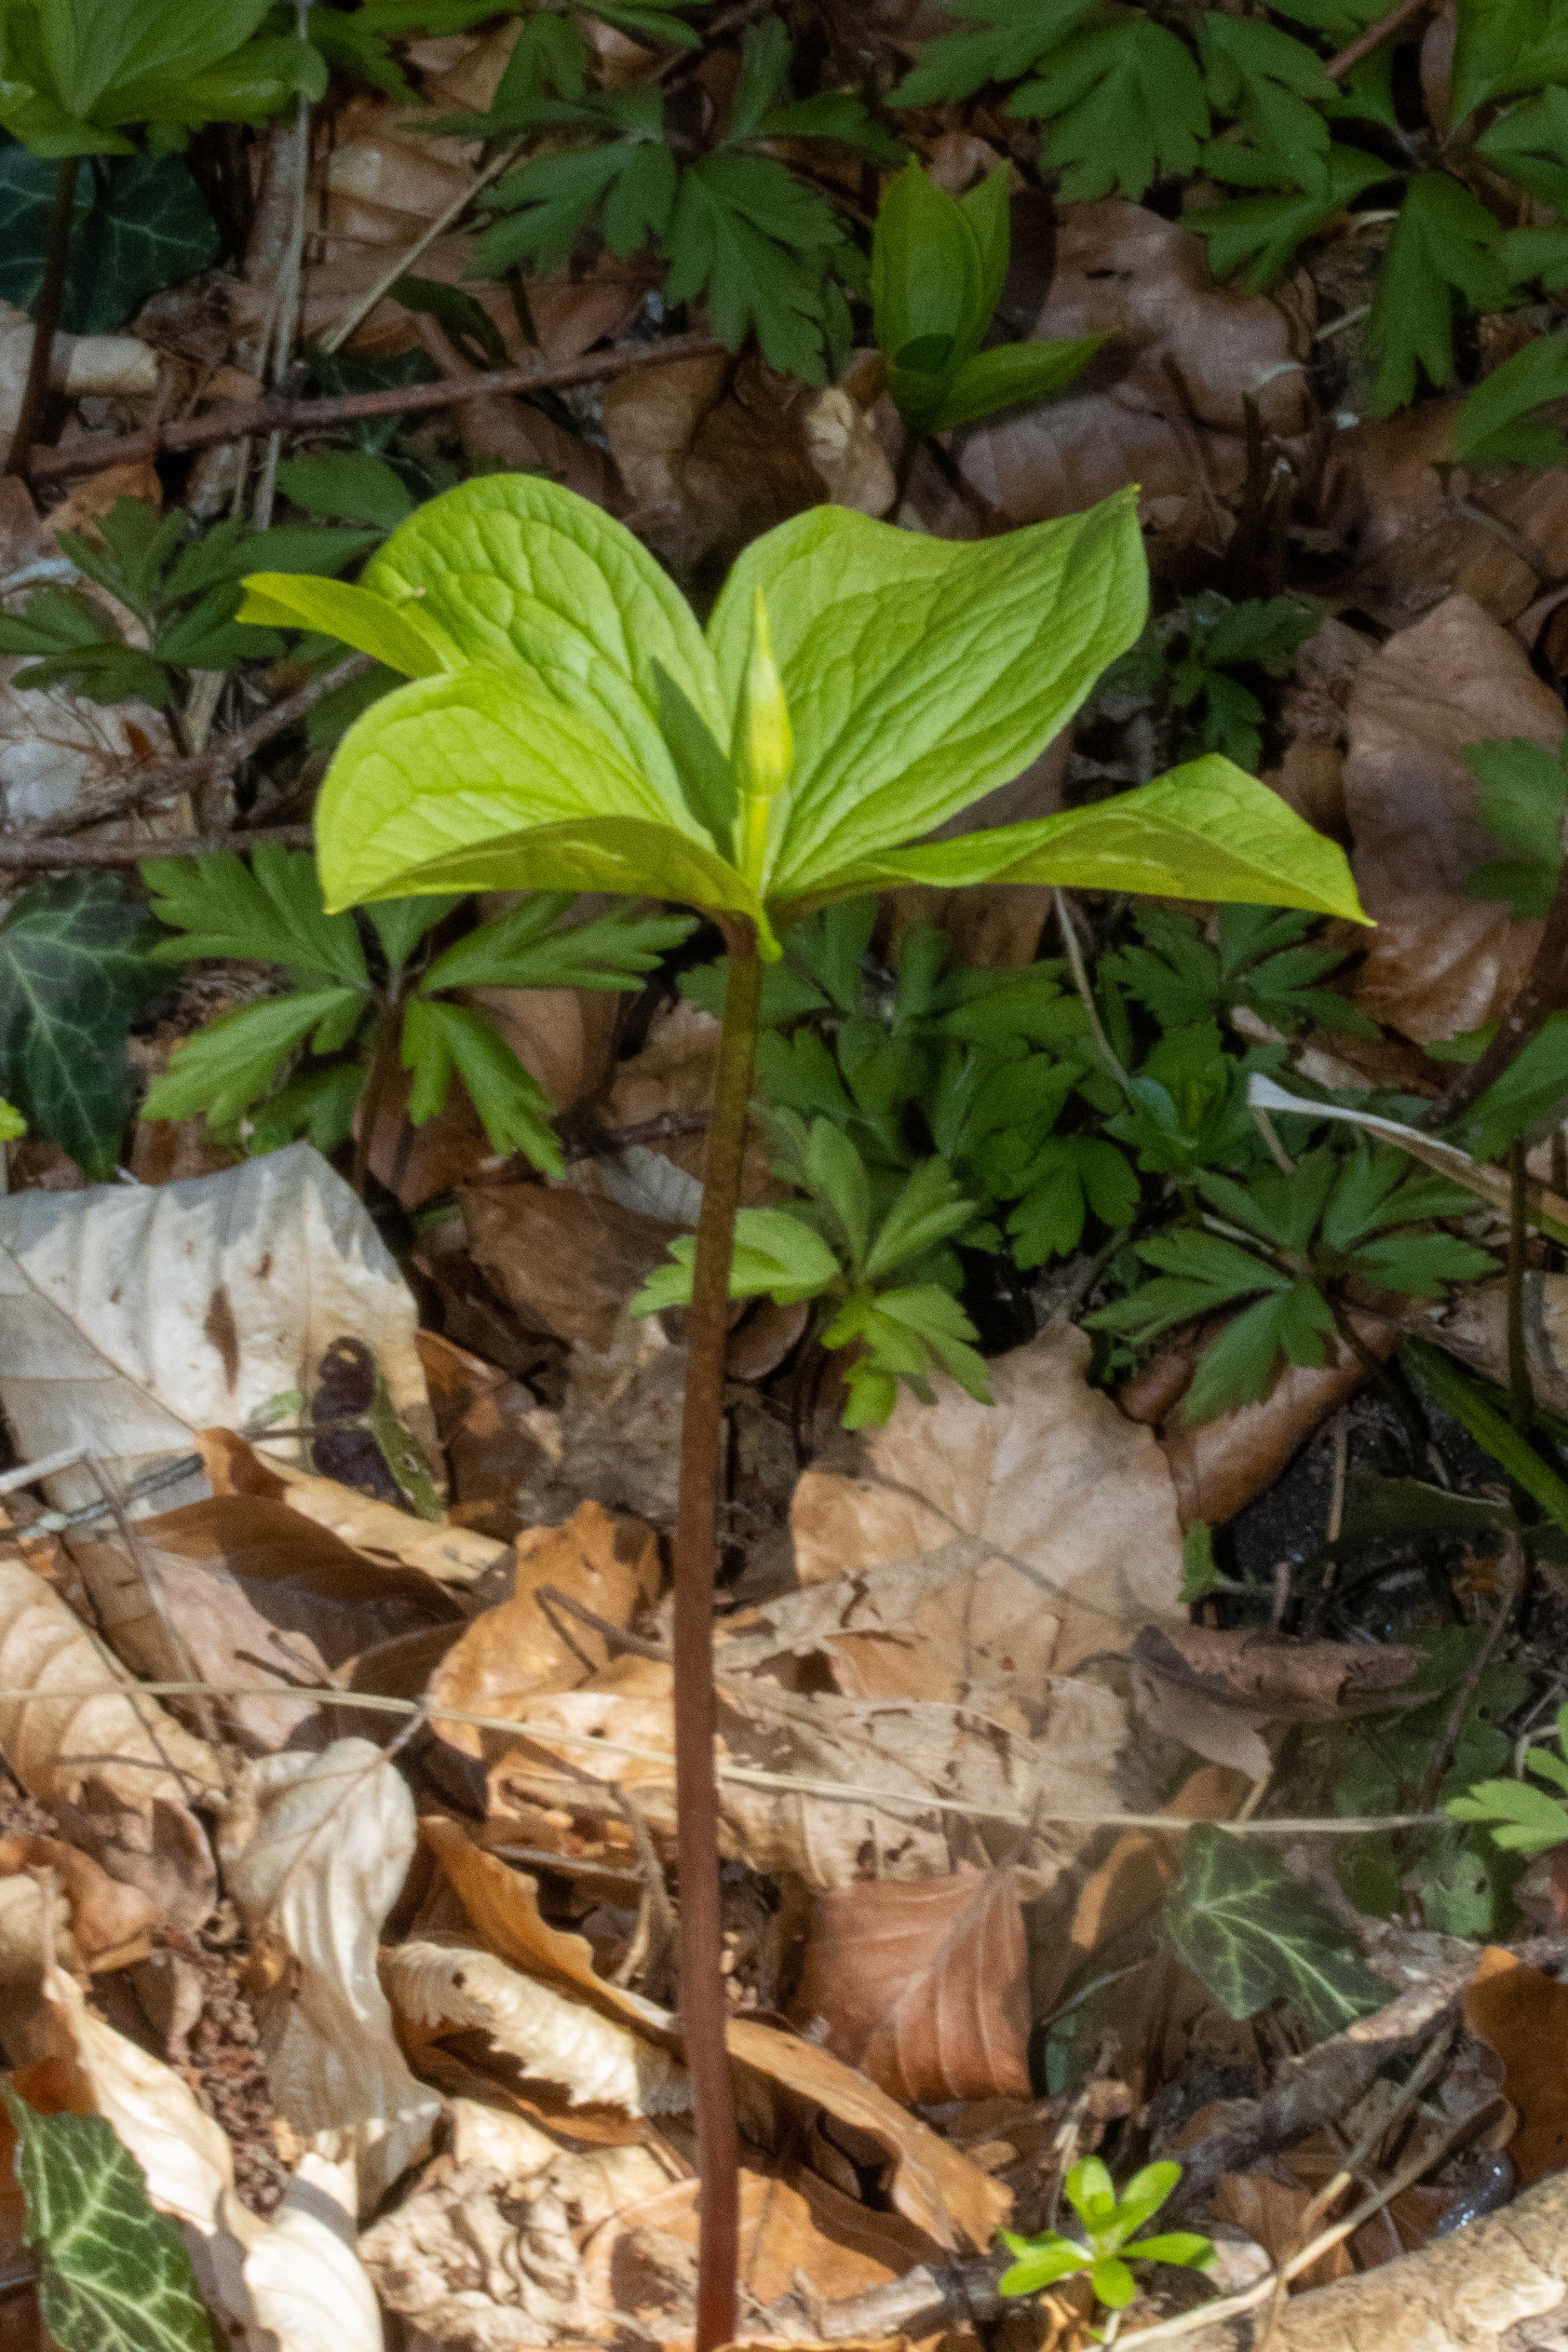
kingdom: Plantae
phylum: Tracheophyta
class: Liliopsida
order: Liliales
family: Melanthiaceae
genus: Paris
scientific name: Paris quadrifolia
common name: Firblad
